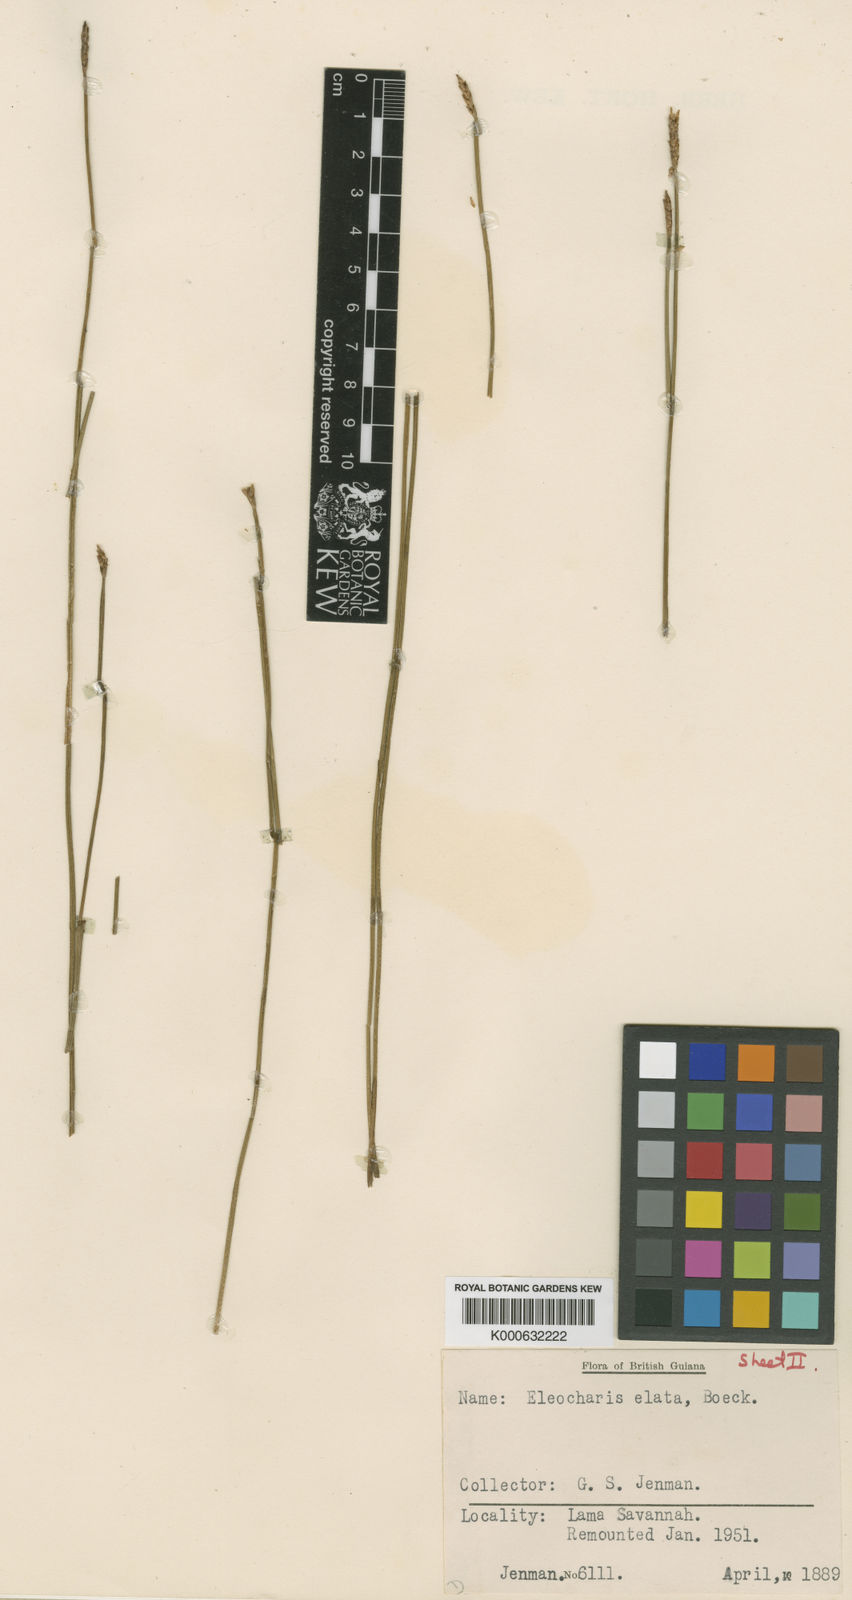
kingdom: Plantae
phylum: Tracheophyta
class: Liliopsida
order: Poales
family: Cyperaceae
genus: Eleocharis
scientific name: Eleocharis plicarhachis
